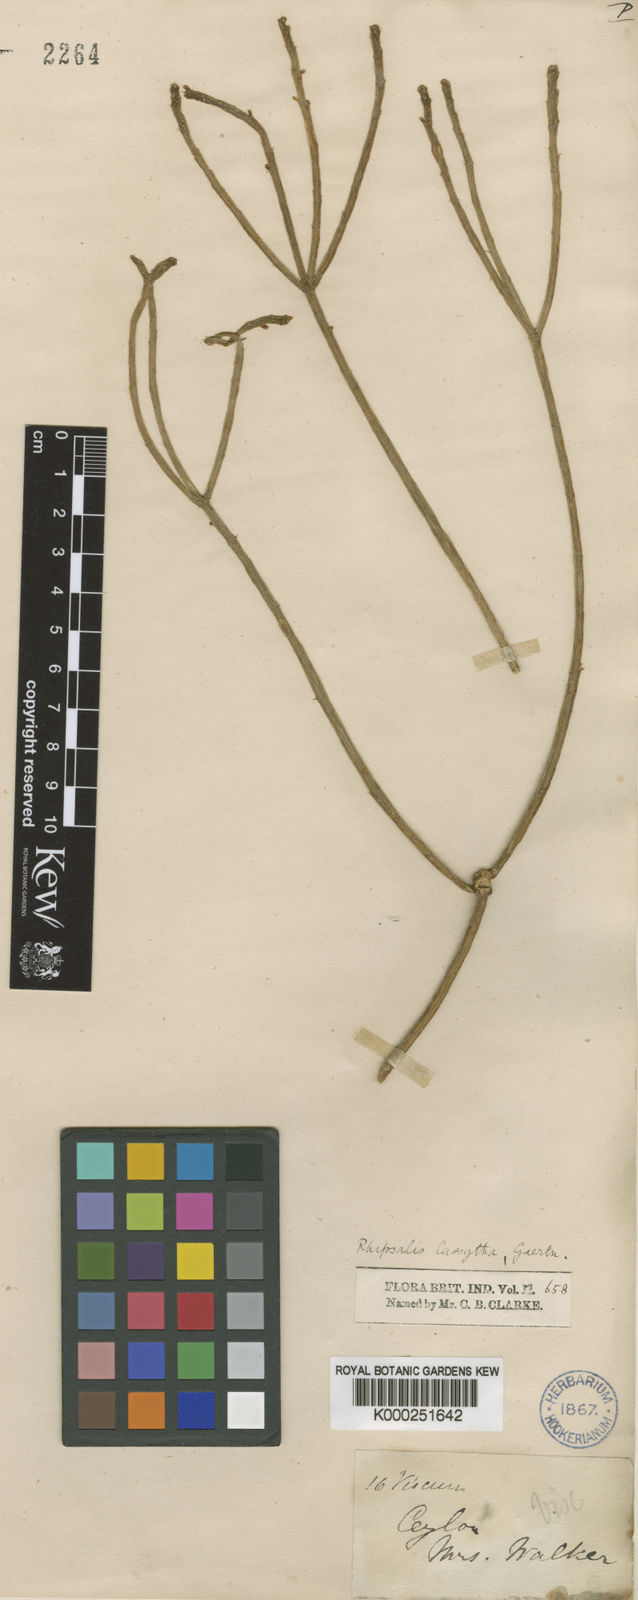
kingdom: Plantae
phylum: Tracheophyta
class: Magnoliopsida
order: Caryophyllales
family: Cactaceae
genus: Rhipsalis
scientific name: Rhipsalis baccifera
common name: Mistletoe cactus
